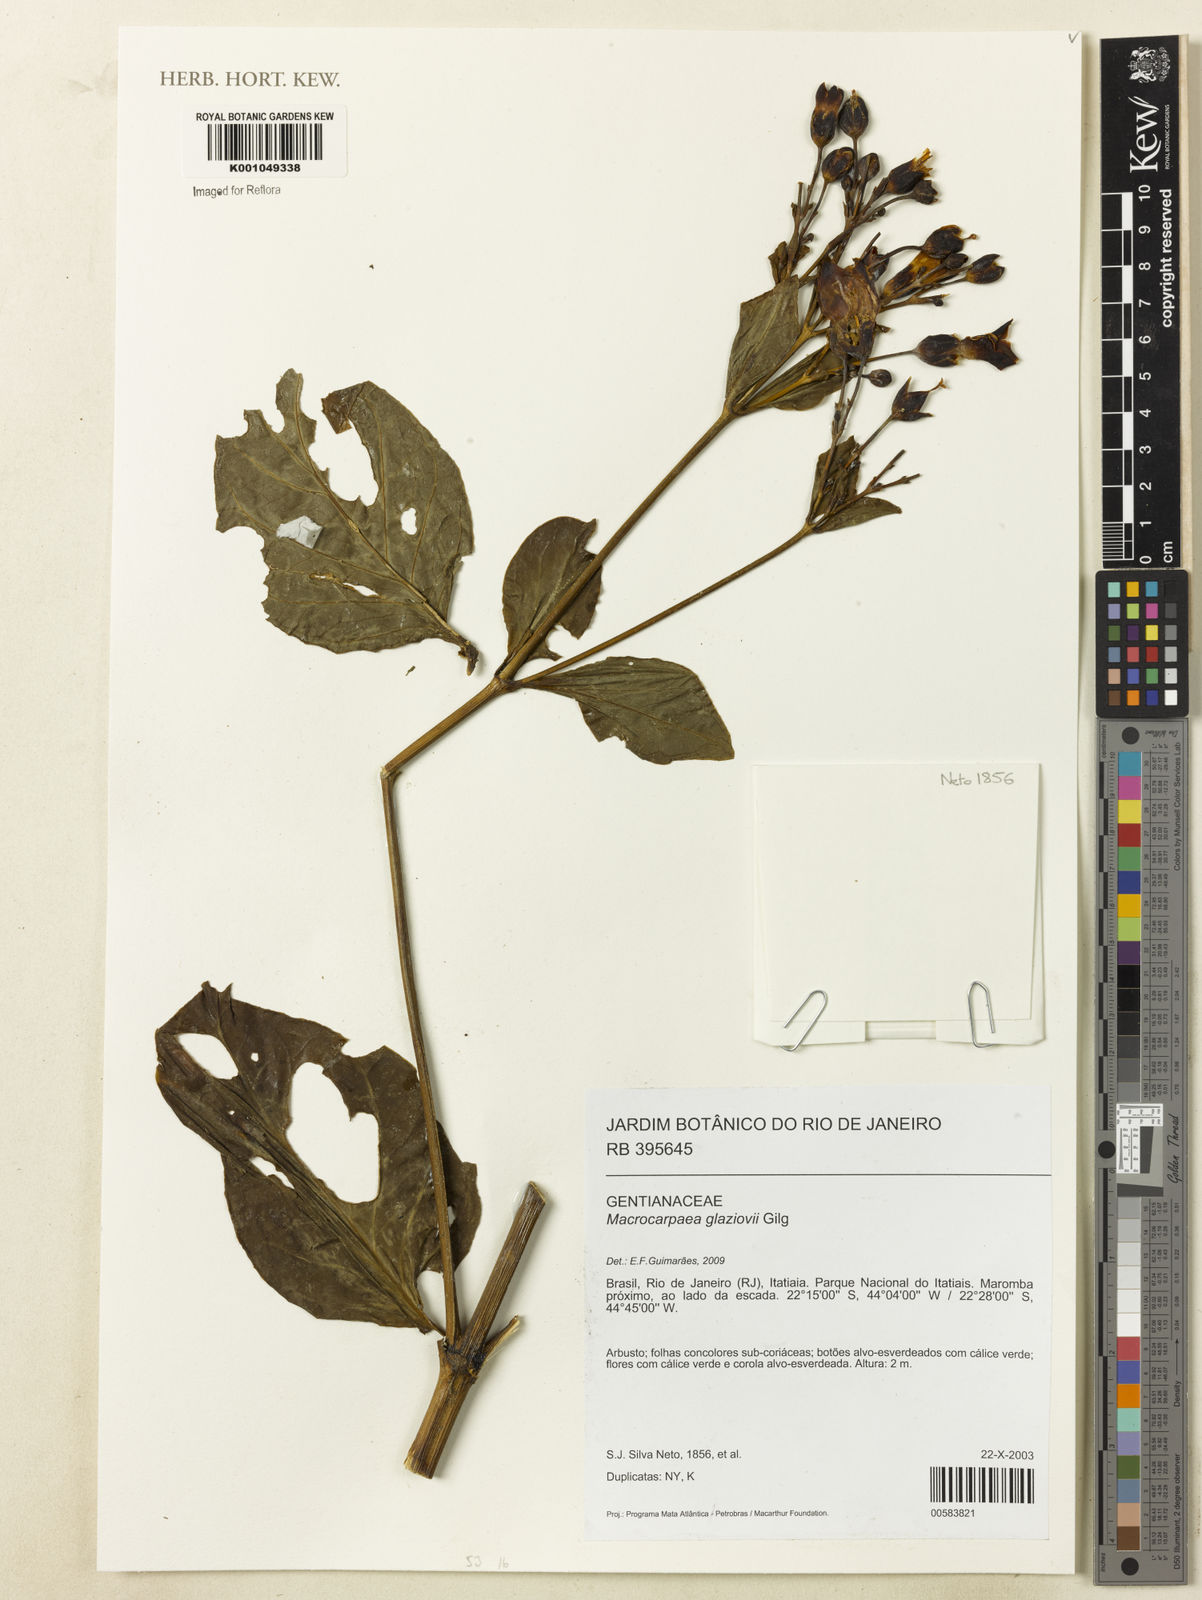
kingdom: Plantae
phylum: Tracheophyta
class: Magnoliopsida
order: Gentianales
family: Gentianaceae
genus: Macrocarpaea
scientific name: Macrocarpaea glaziovii
